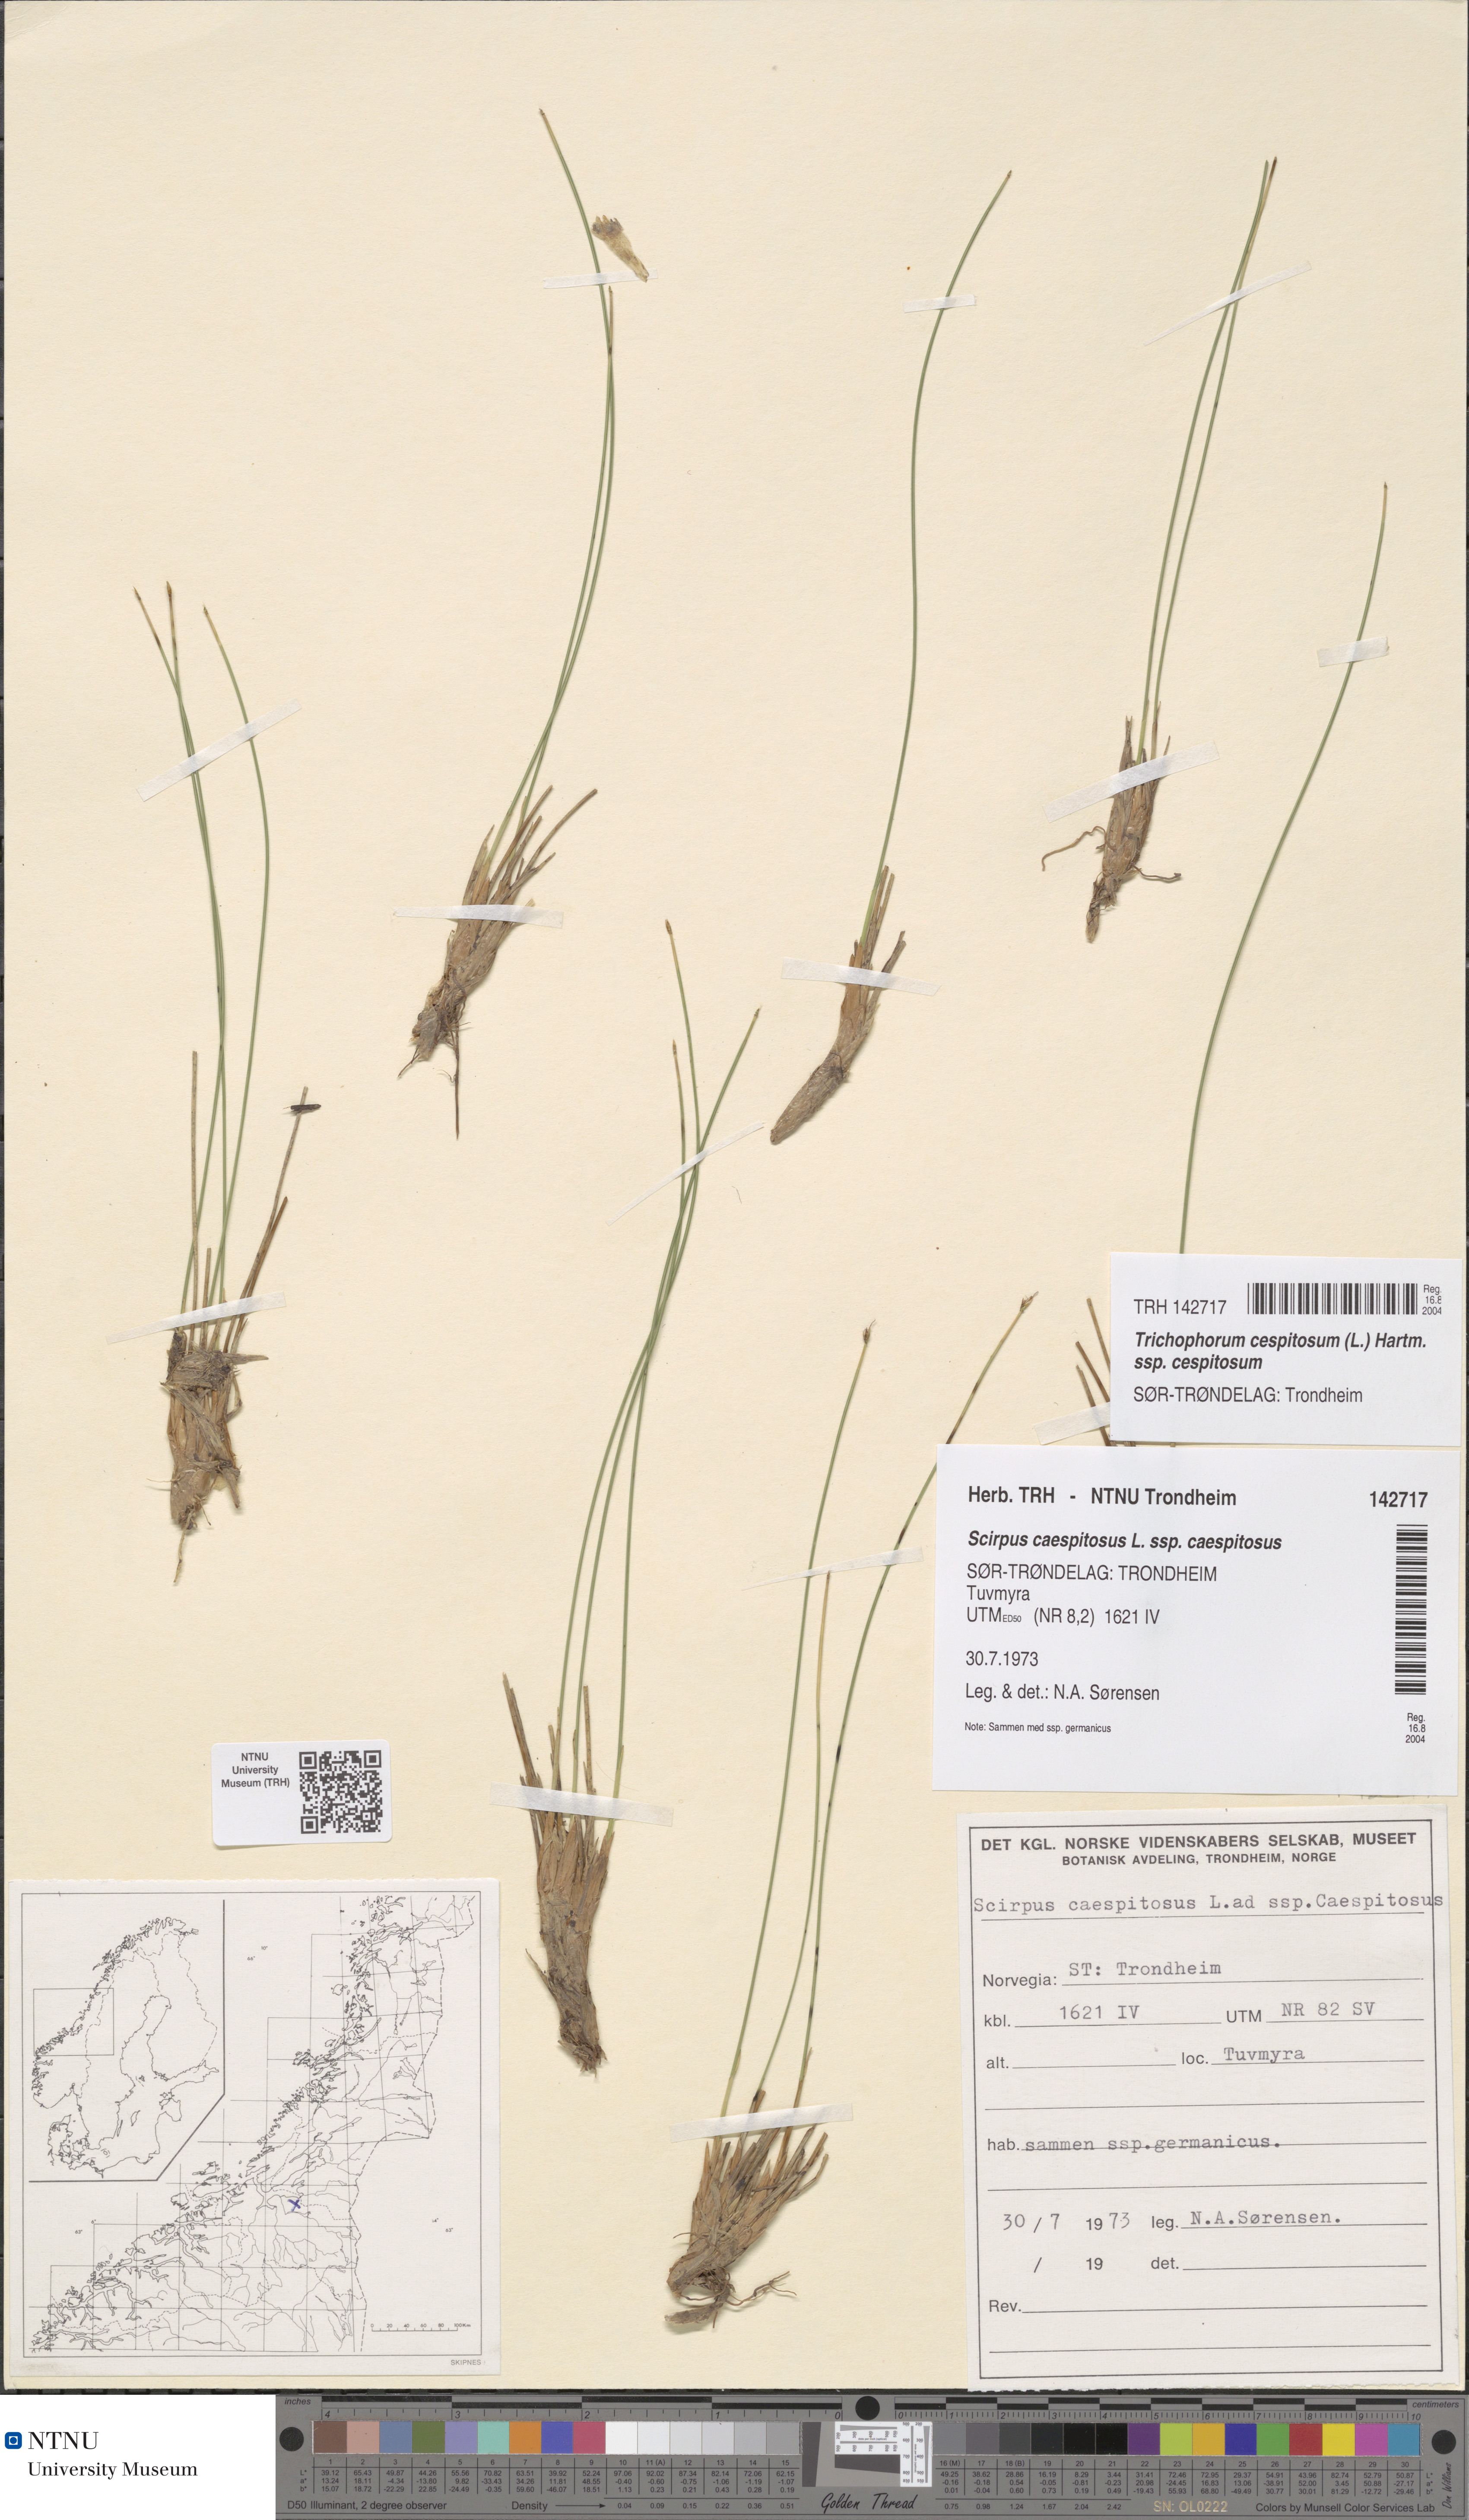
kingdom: Plantae
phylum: Tracheophyta
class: Liliopsida
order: Poales
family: Cyperaceae
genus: Trichophorum
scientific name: Trichophorum cespitosum
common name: Cespitose bulrush
